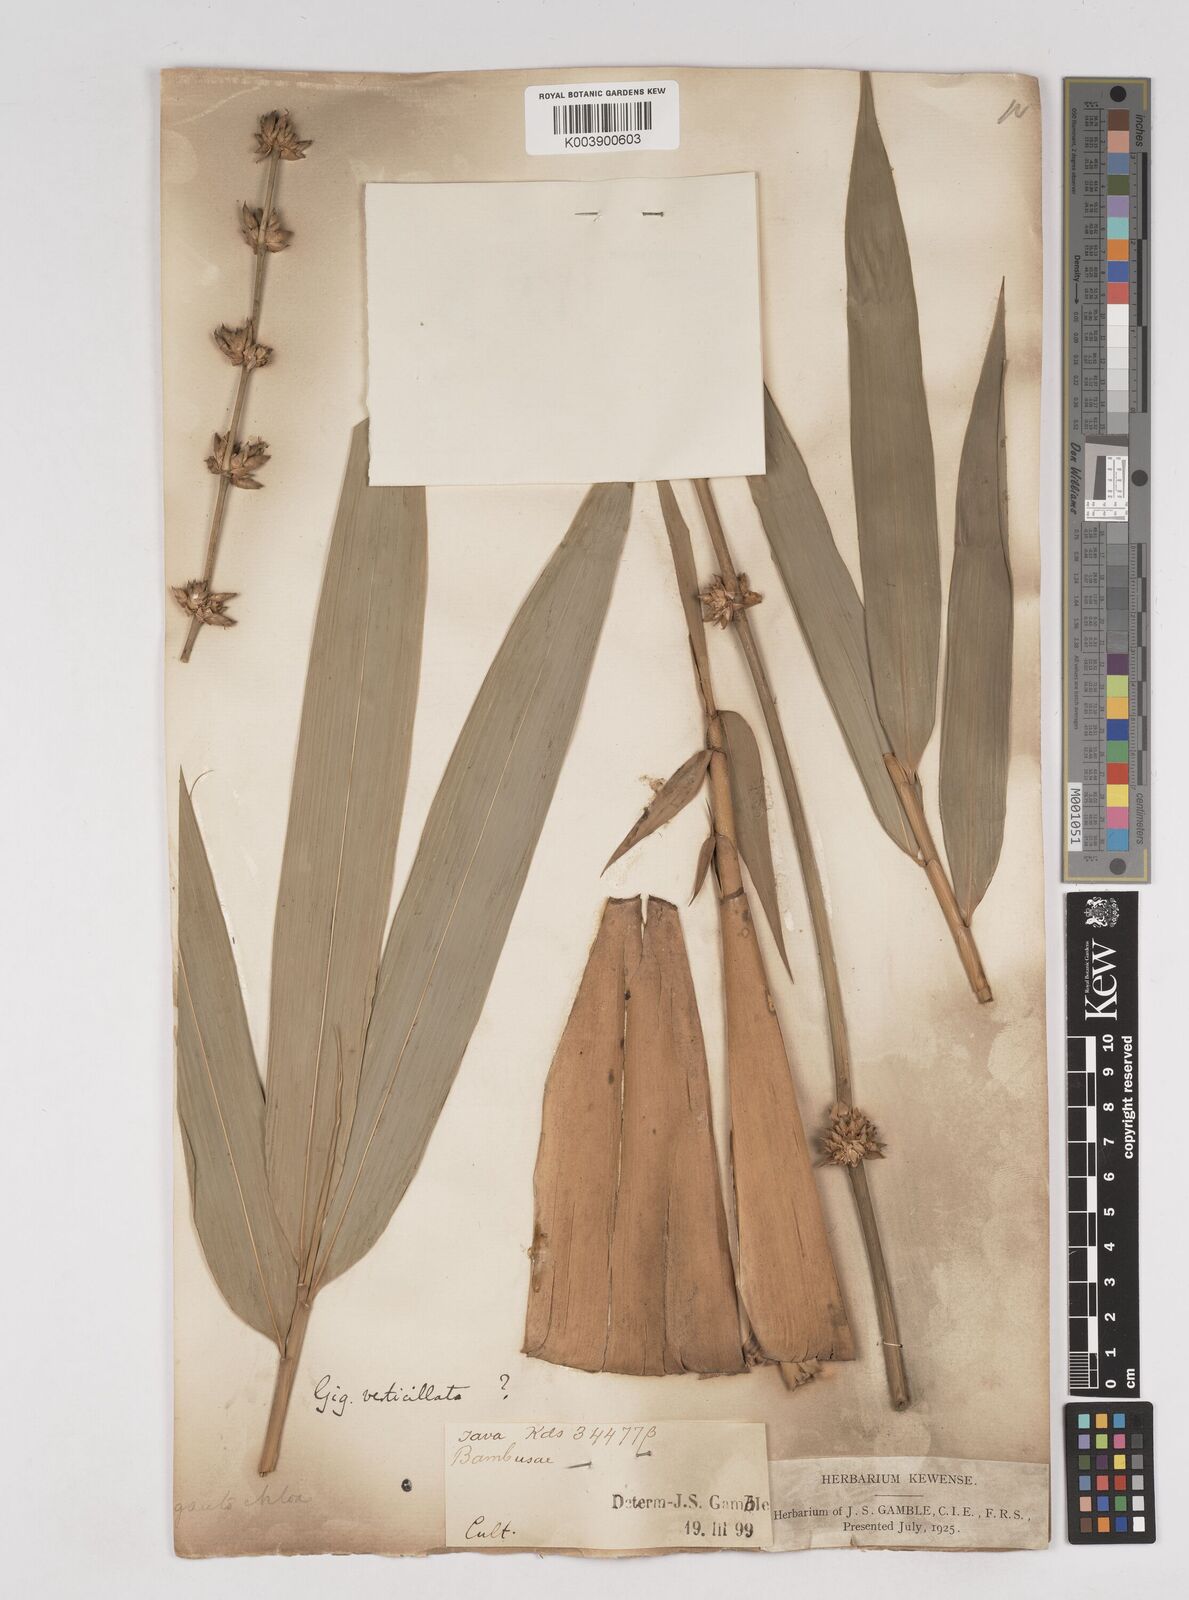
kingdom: Plantae
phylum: Tracheophyta
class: Liliopsida
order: Poales
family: Poaceae
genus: Gigantochloa
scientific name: Gigantochloa
